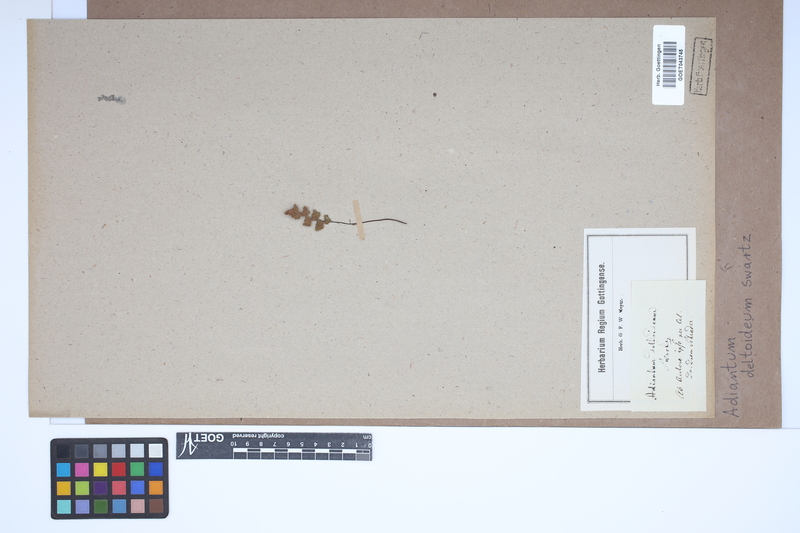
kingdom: Plantae
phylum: Tracheophyta
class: Polypodiopsida
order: Polypodiales
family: Pteridaceae
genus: Adiantum
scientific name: Adiantum deltoideum
